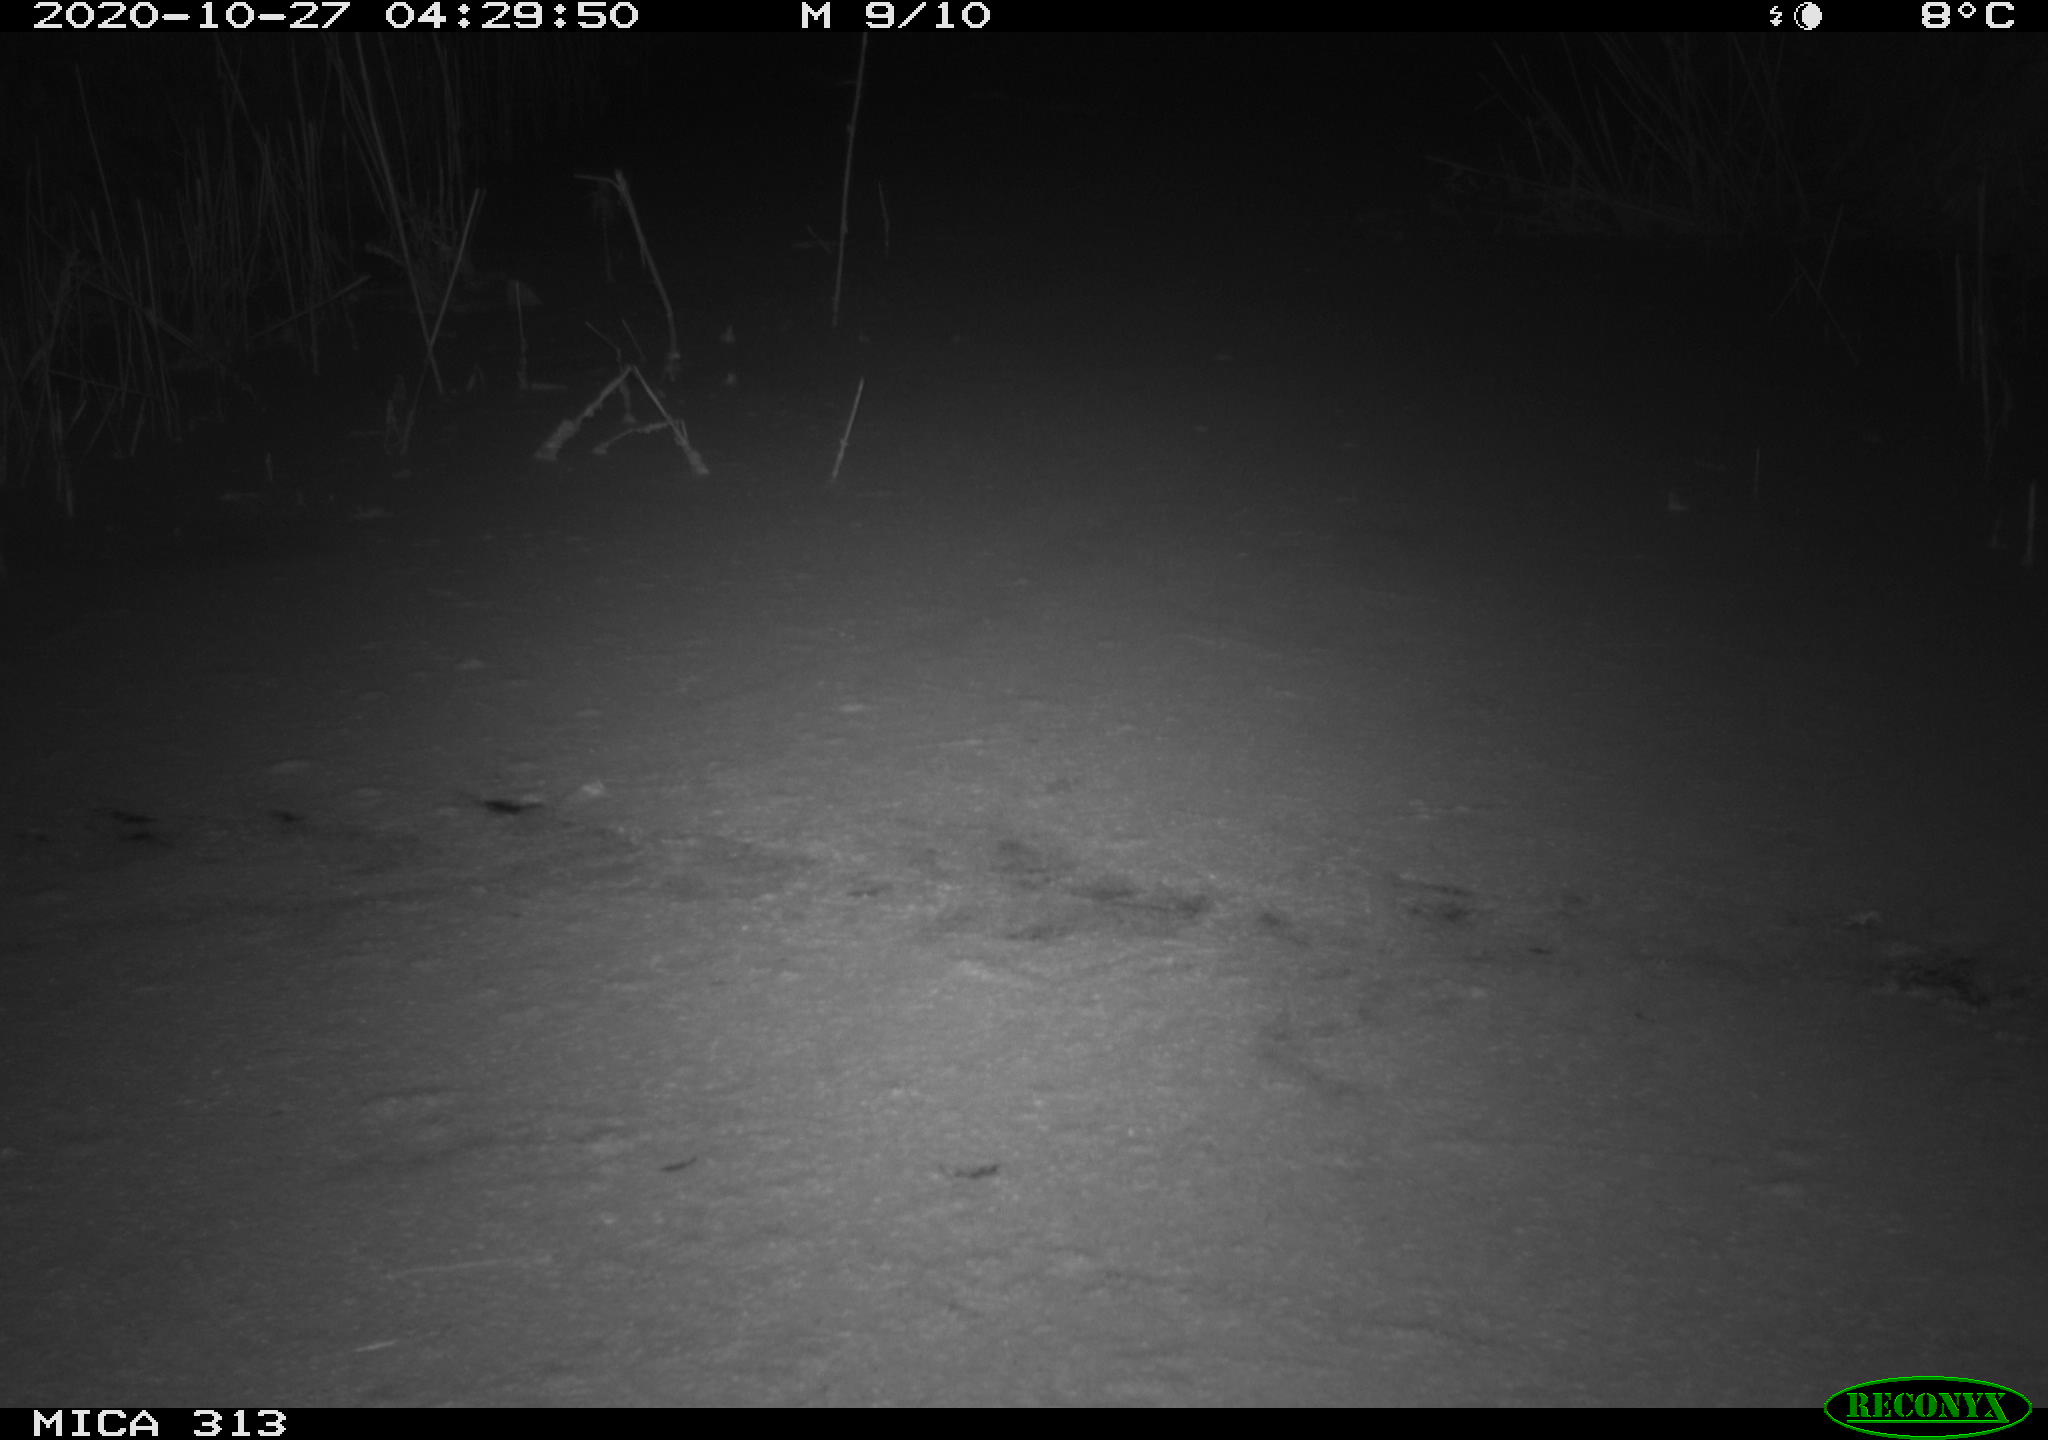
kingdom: Animalia
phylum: Chordata
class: Mammalia
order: Rodentia
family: Muridae
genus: Rattus
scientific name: Rattus norvegicus
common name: Brown rat
